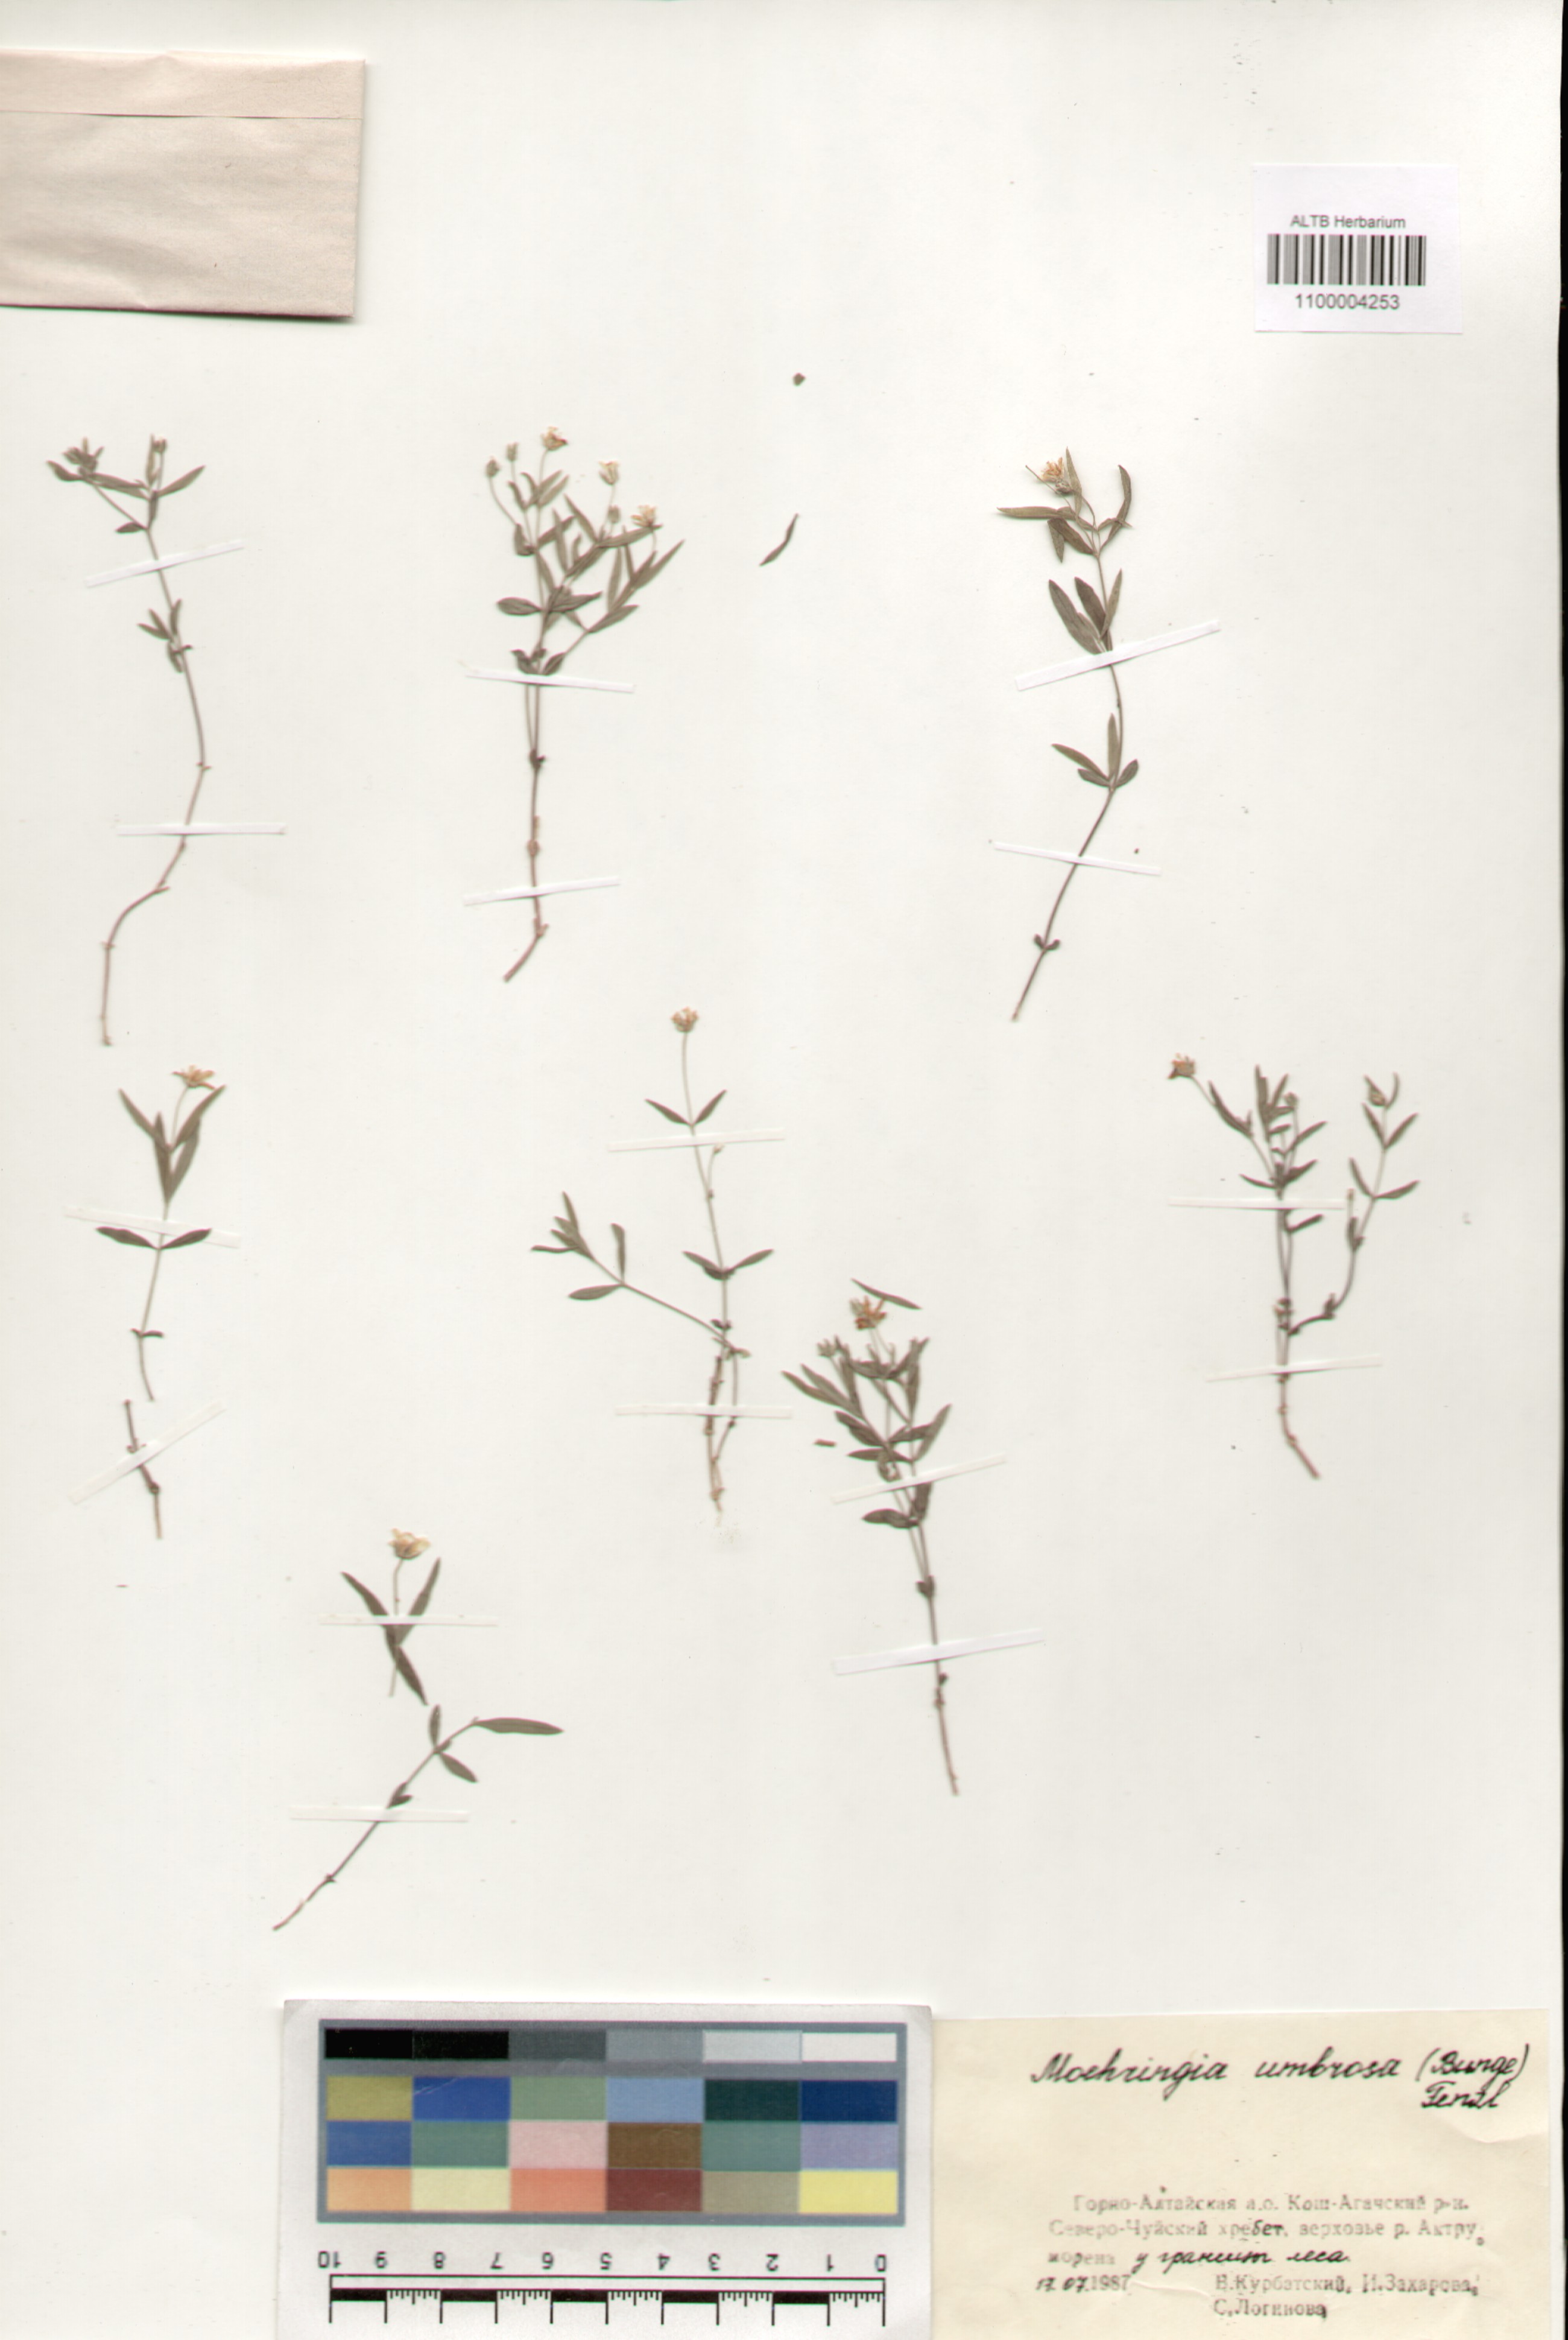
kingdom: Plantae
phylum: Tracheophyta
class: Magnoliopsida
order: Caryophyllales
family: Caryophyllaceae
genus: Moehringia
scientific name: Moehringia umbrosa
